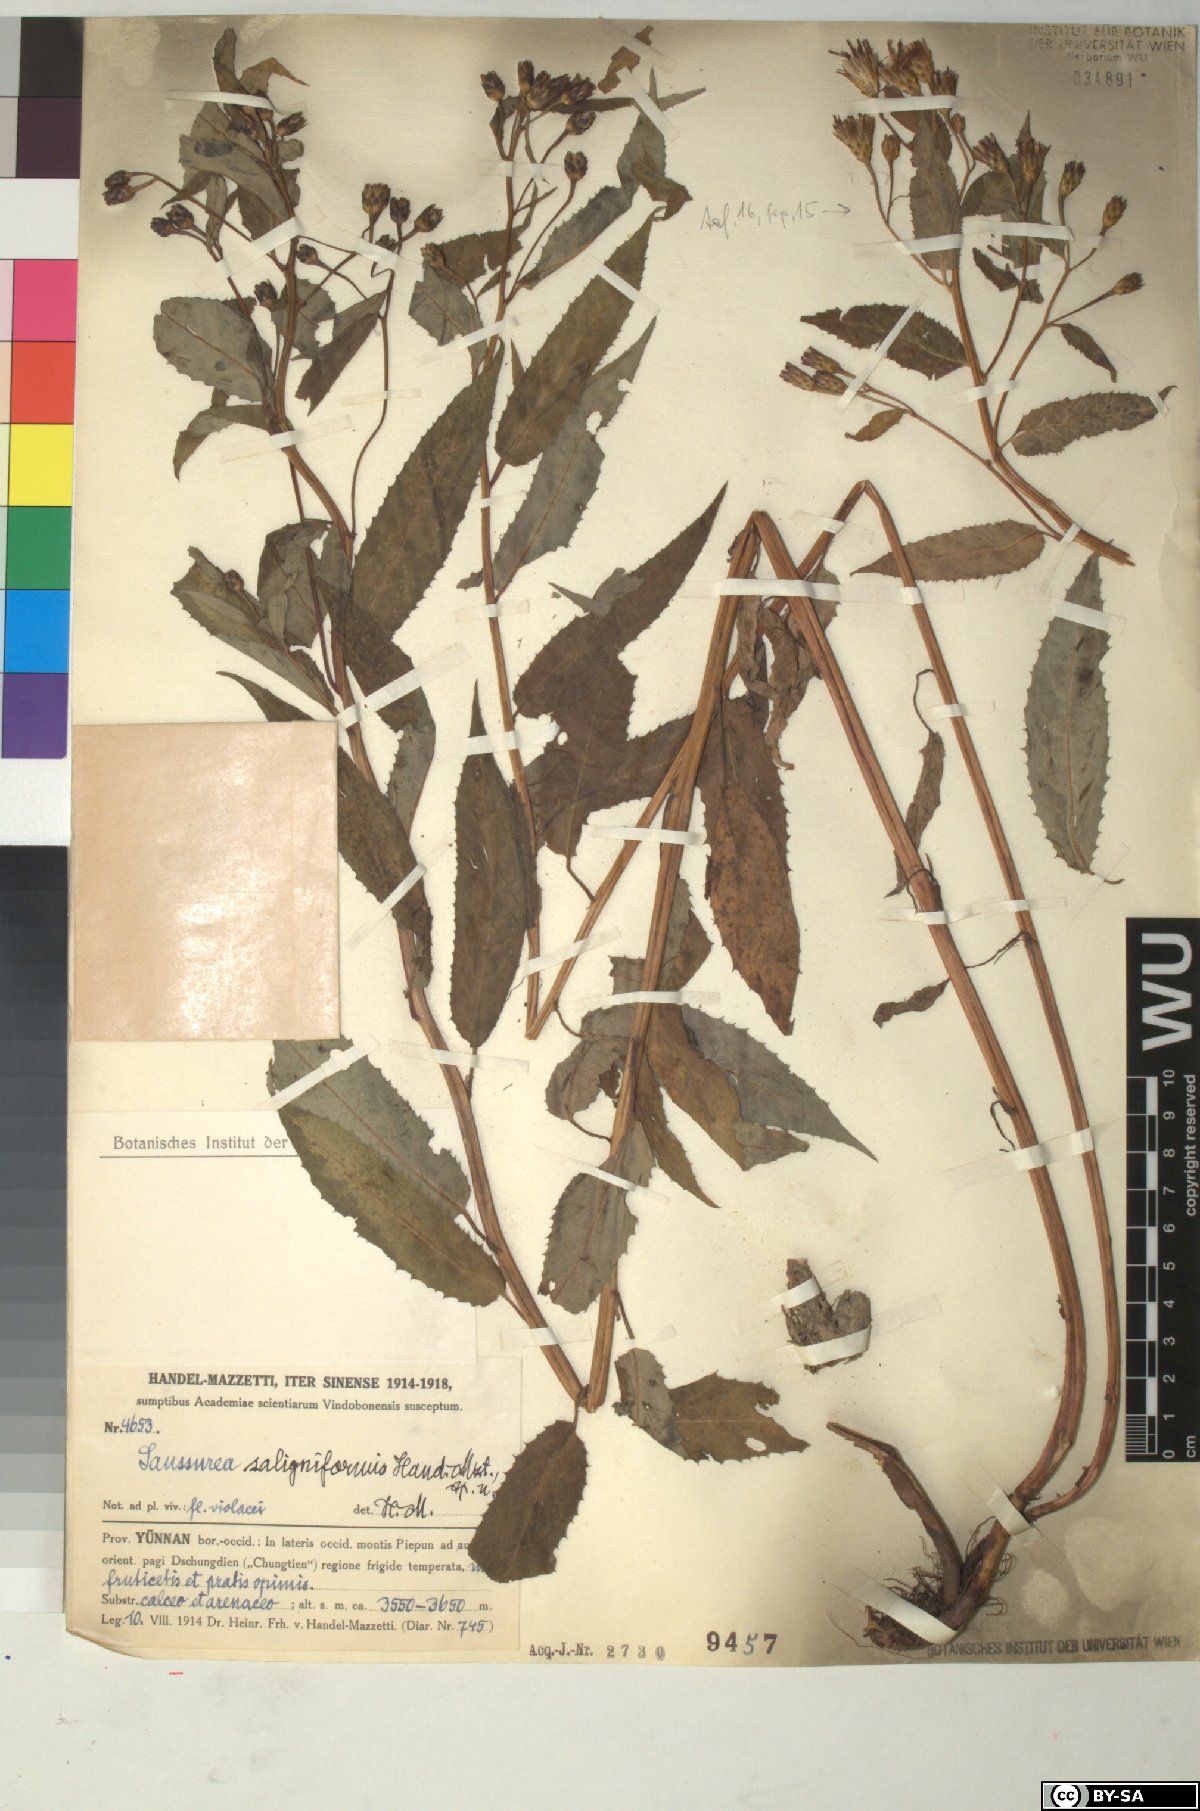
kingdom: Plantae
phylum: Tracheophyta
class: Magnoliopsida
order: Asterales
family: Asteraceae
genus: Saussurea
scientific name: Saussurea dolichopoda
